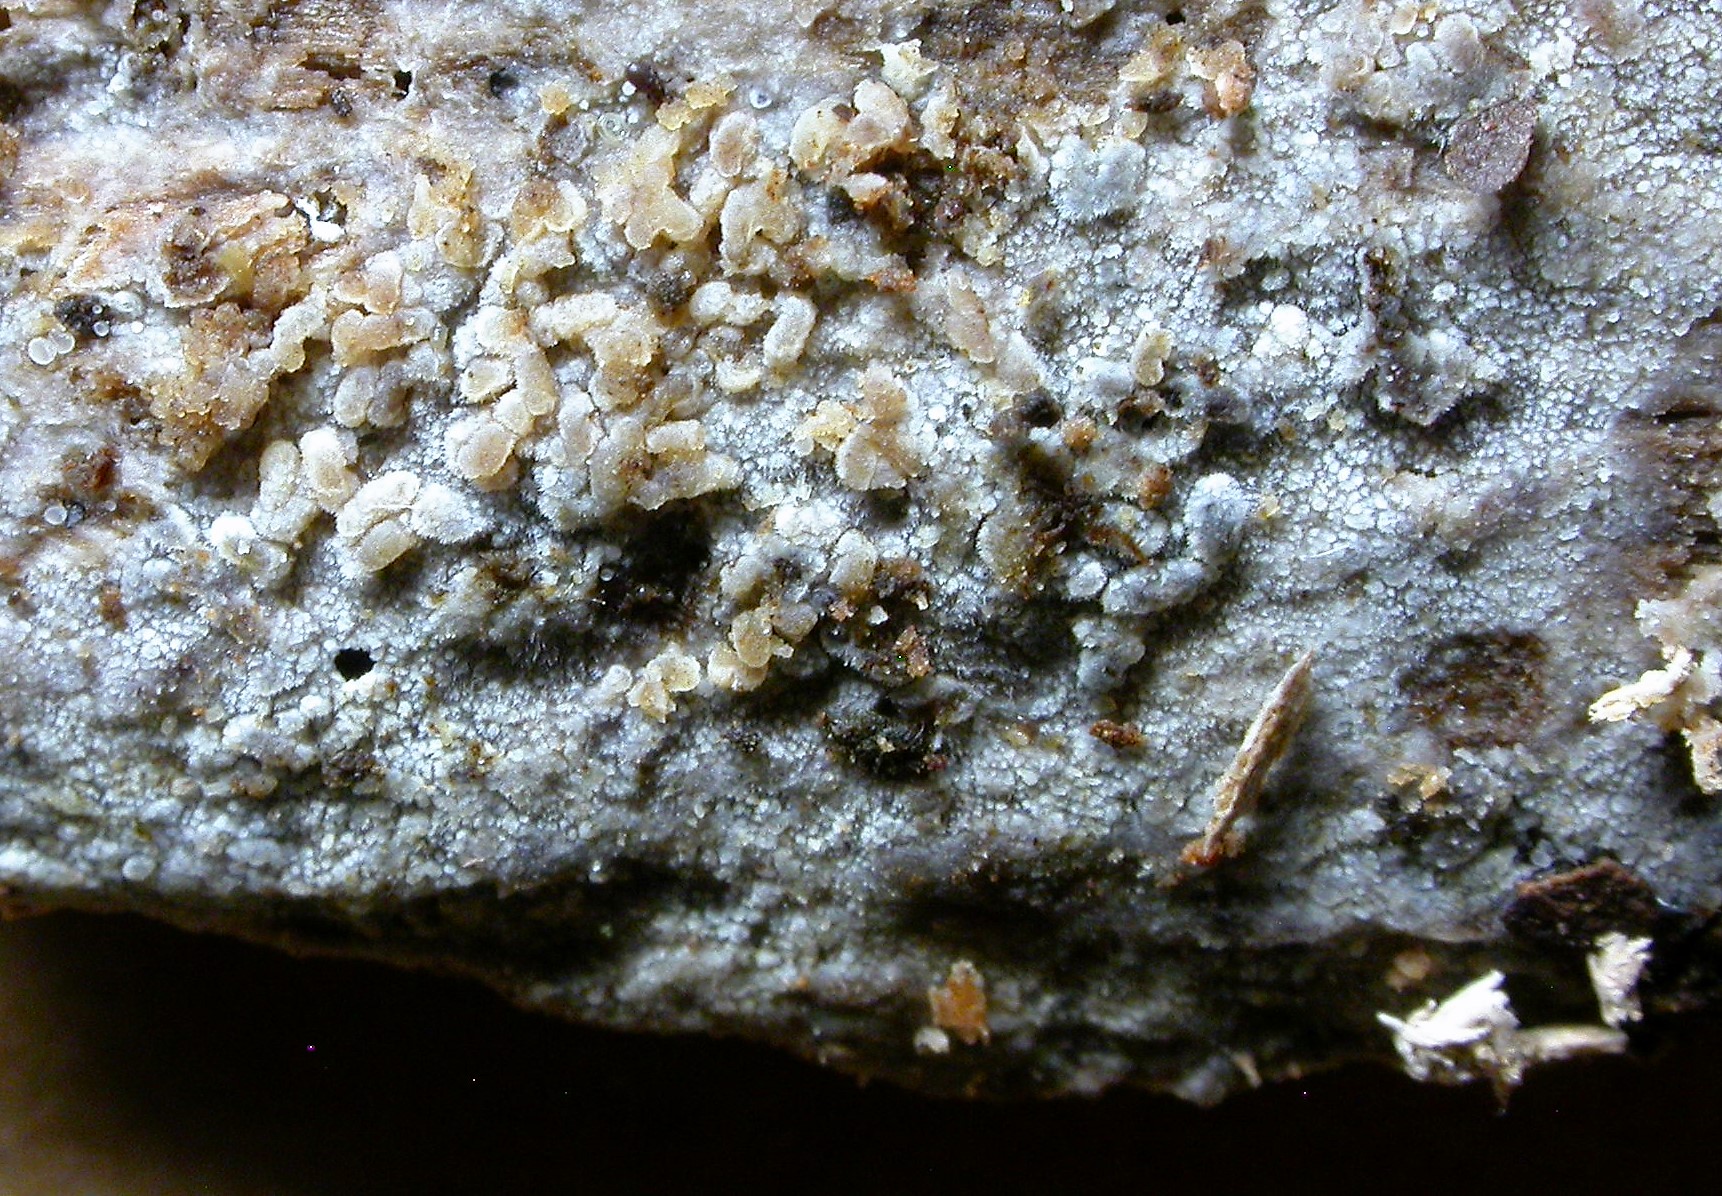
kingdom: Fungi
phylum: Basidiomycota
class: Agaricomycetes
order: Polyporales
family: Meruliaceae
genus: Scopuloides
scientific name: Scopuloides rimosa
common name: dughinde
